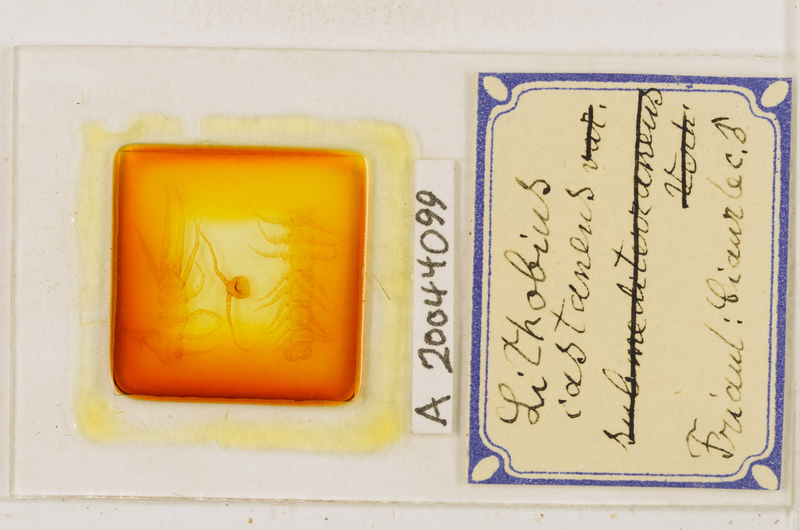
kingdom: Animalia
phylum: Arthropoda
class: Chilopoda
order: Lithobiomorpha
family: Lithobiidae
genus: Lithobius
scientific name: Lithobius castaneus
